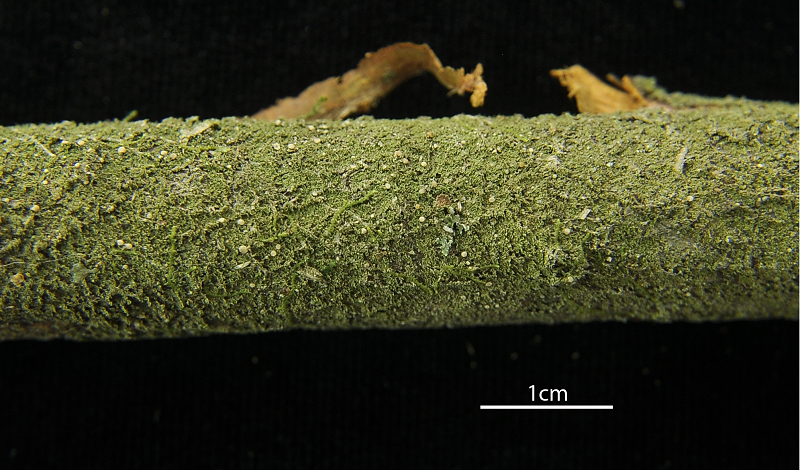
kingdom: Fungi
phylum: Ascomycota
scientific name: Ascomycota
